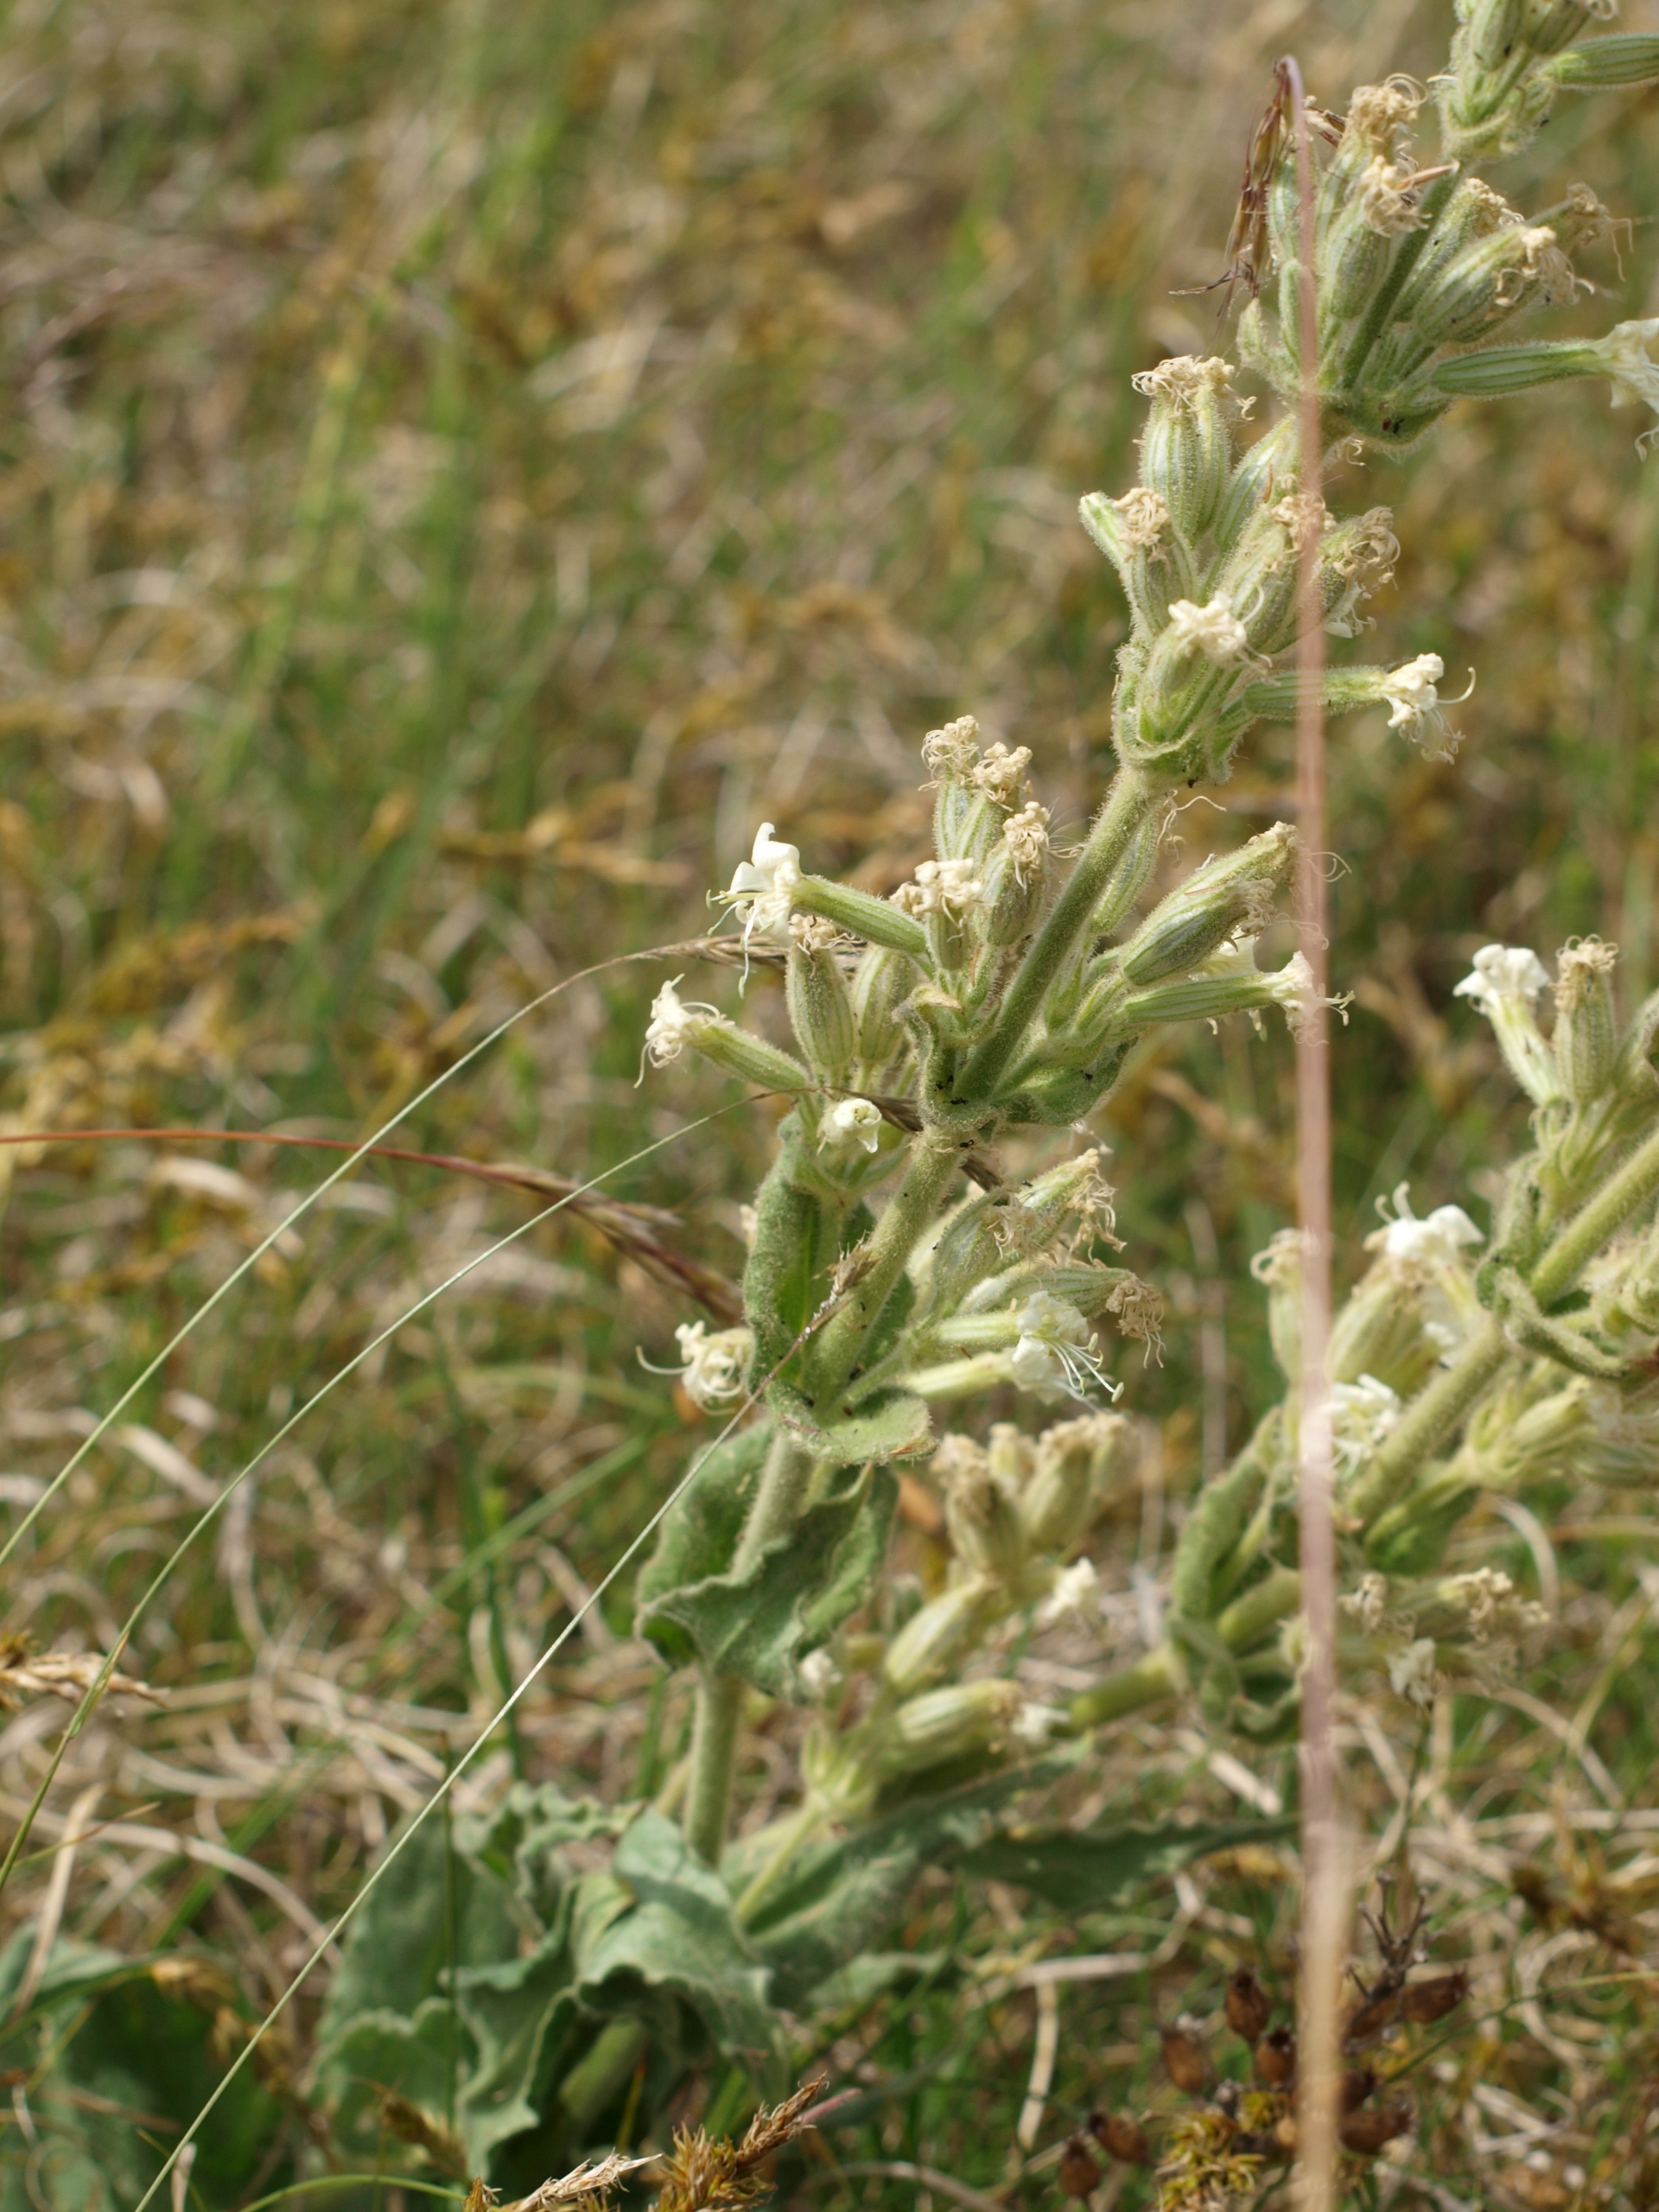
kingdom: Plantae
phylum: Tracheophyta
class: Magnoliopsida
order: Caryophyllales
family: Caryophyllaceae
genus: Silene
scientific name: Silene viscosa
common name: Klæbrig limurt
